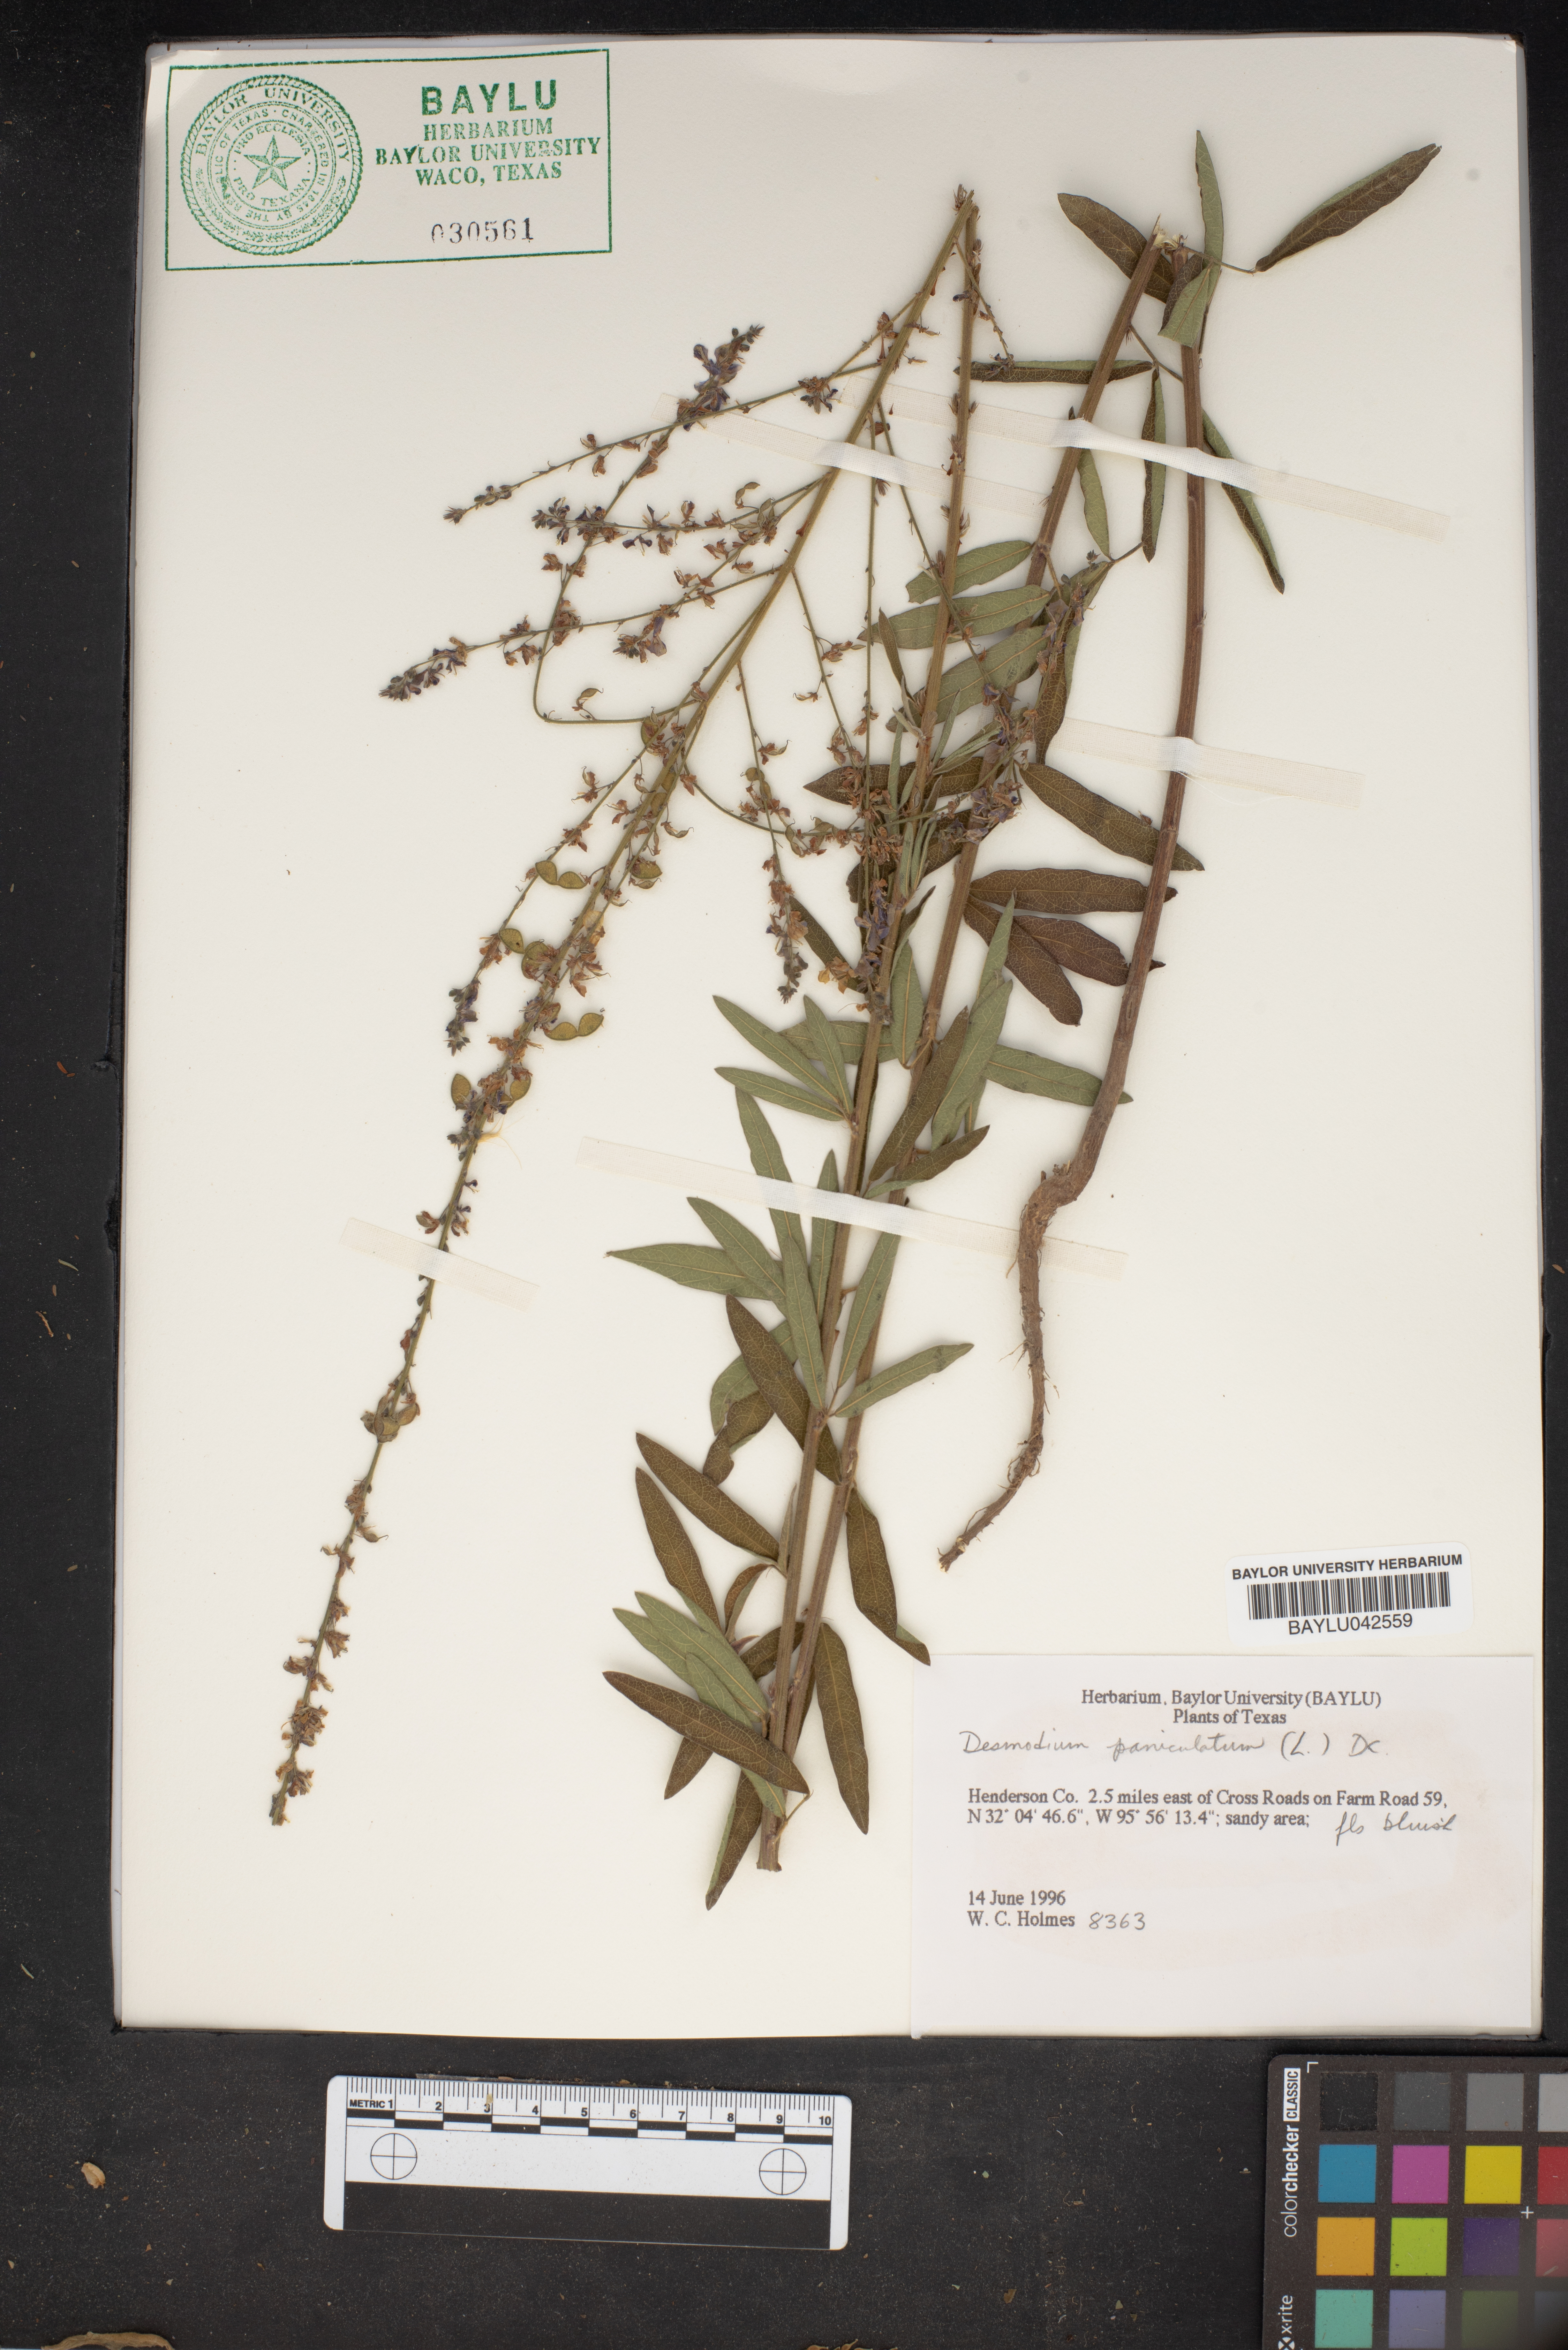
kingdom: Plantae
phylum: Tracheophyta
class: Magnoliopsida
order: Fabales
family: Fabaceae
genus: Desmodium
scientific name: Desmodium paniculatum
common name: Panicled tick-clover
